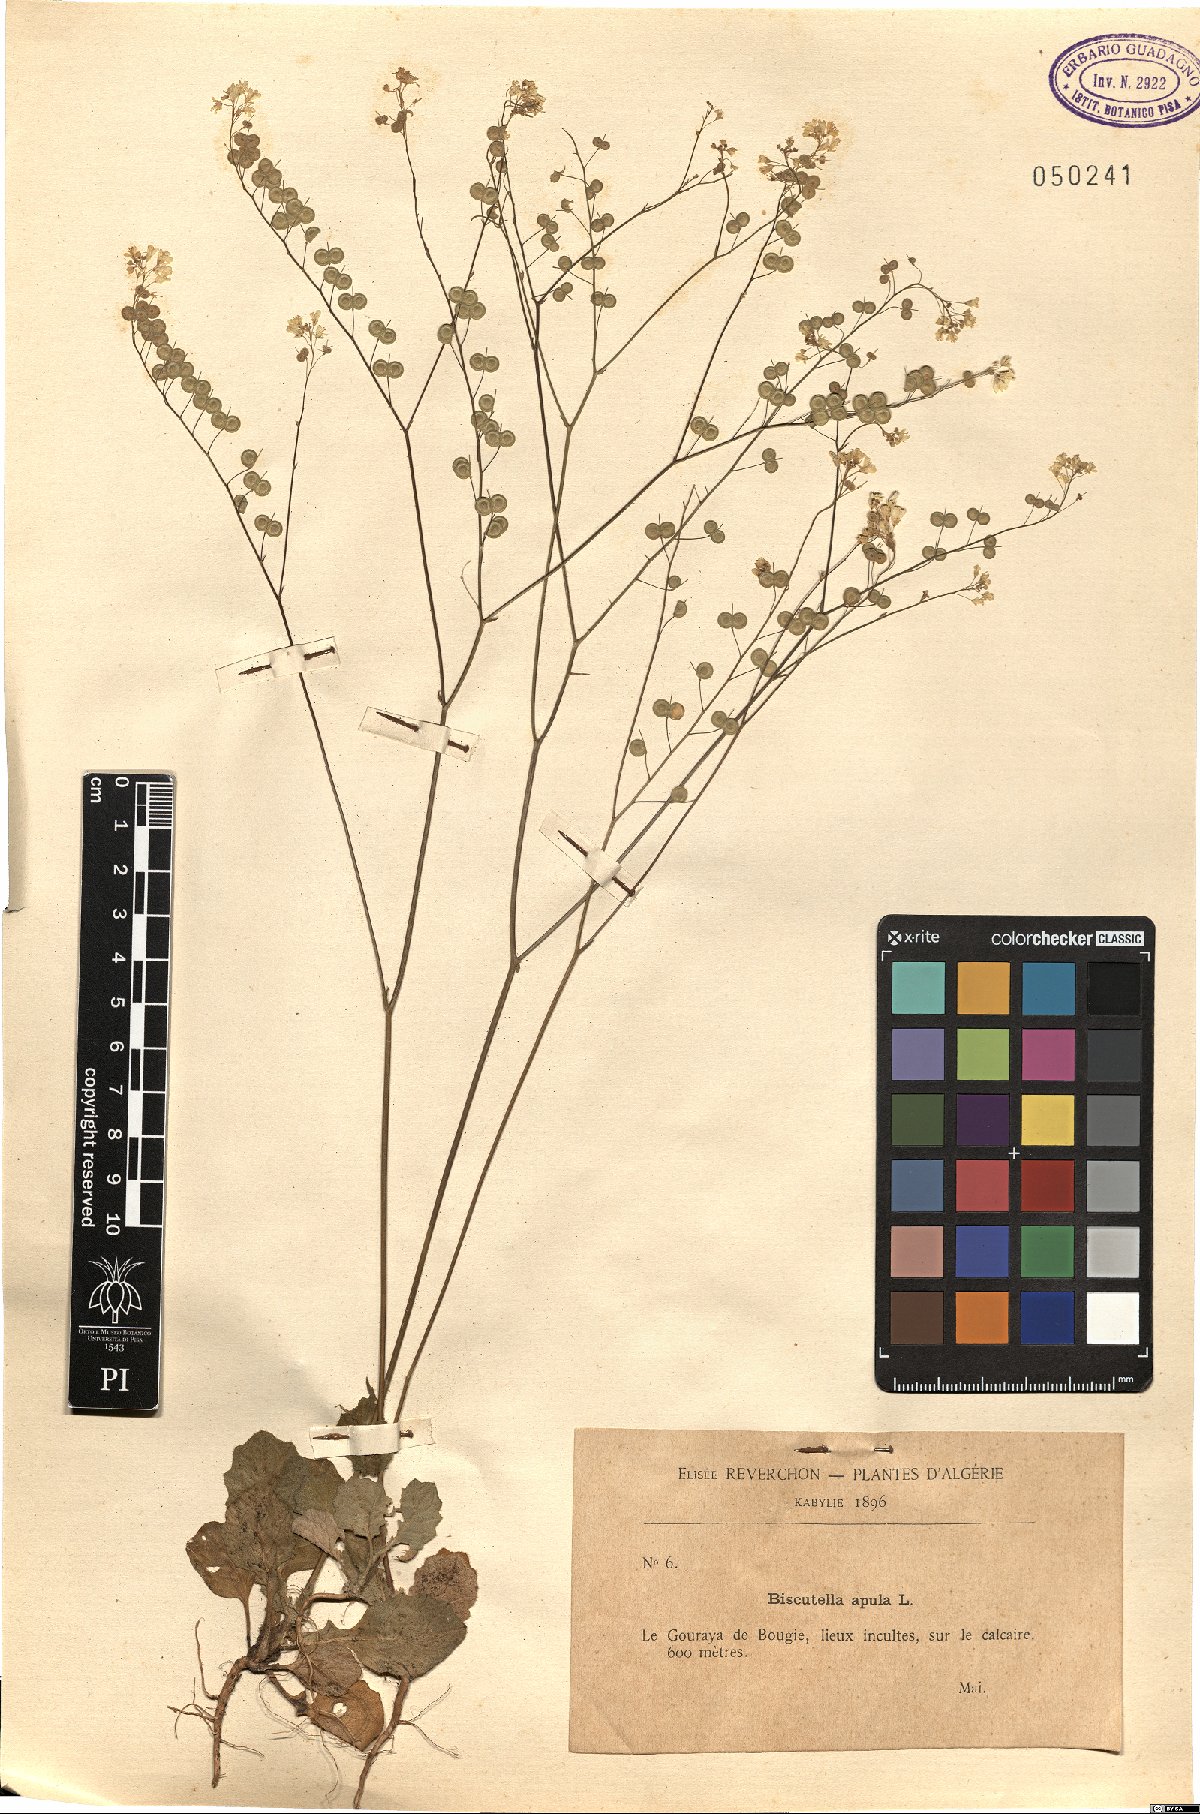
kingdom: Plantae
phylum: Tracheophyta
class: Magnoliopsida
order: Brassicales
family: Brassicaceae
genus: Biscutella
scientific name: Biscutella didyma
